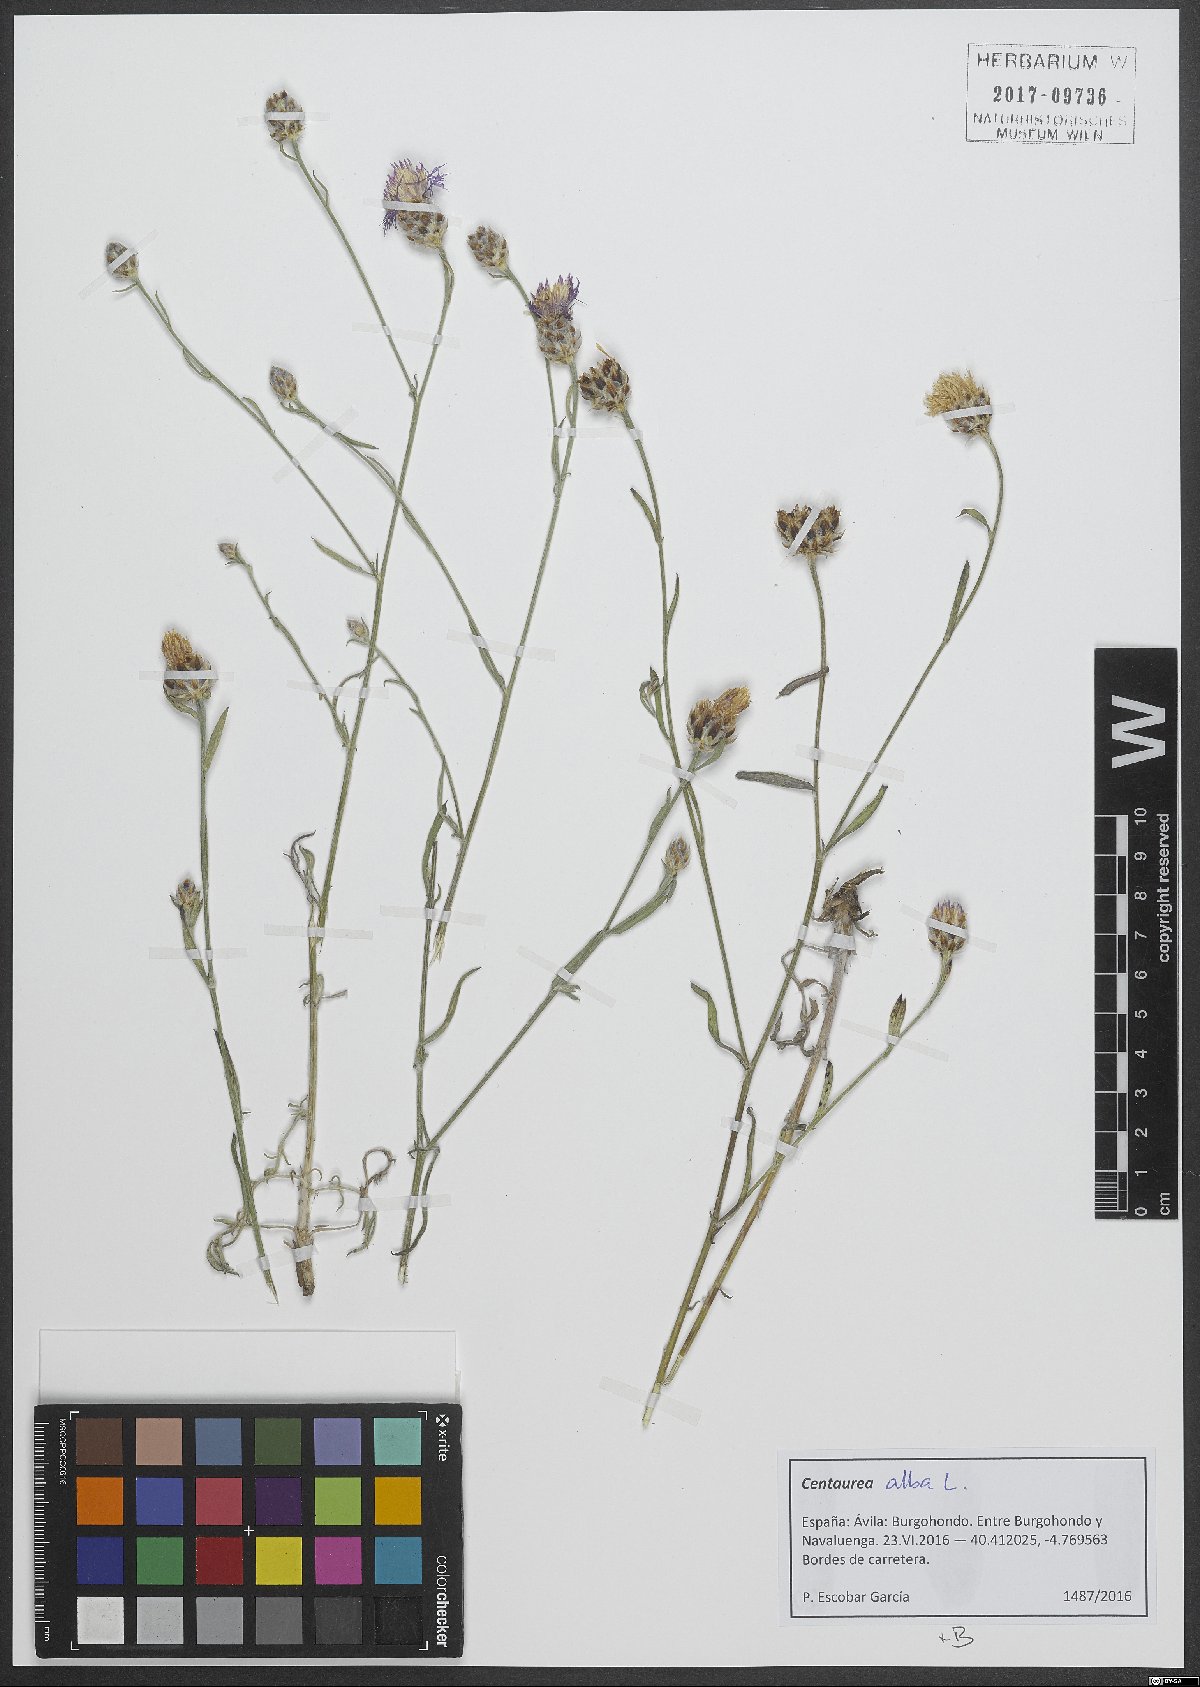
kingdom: Plantae
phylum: Tracheophyta
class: Magnoliopsida
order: Asterales
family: Asteraceae
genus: Centaurea
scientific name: Centaurea alba
